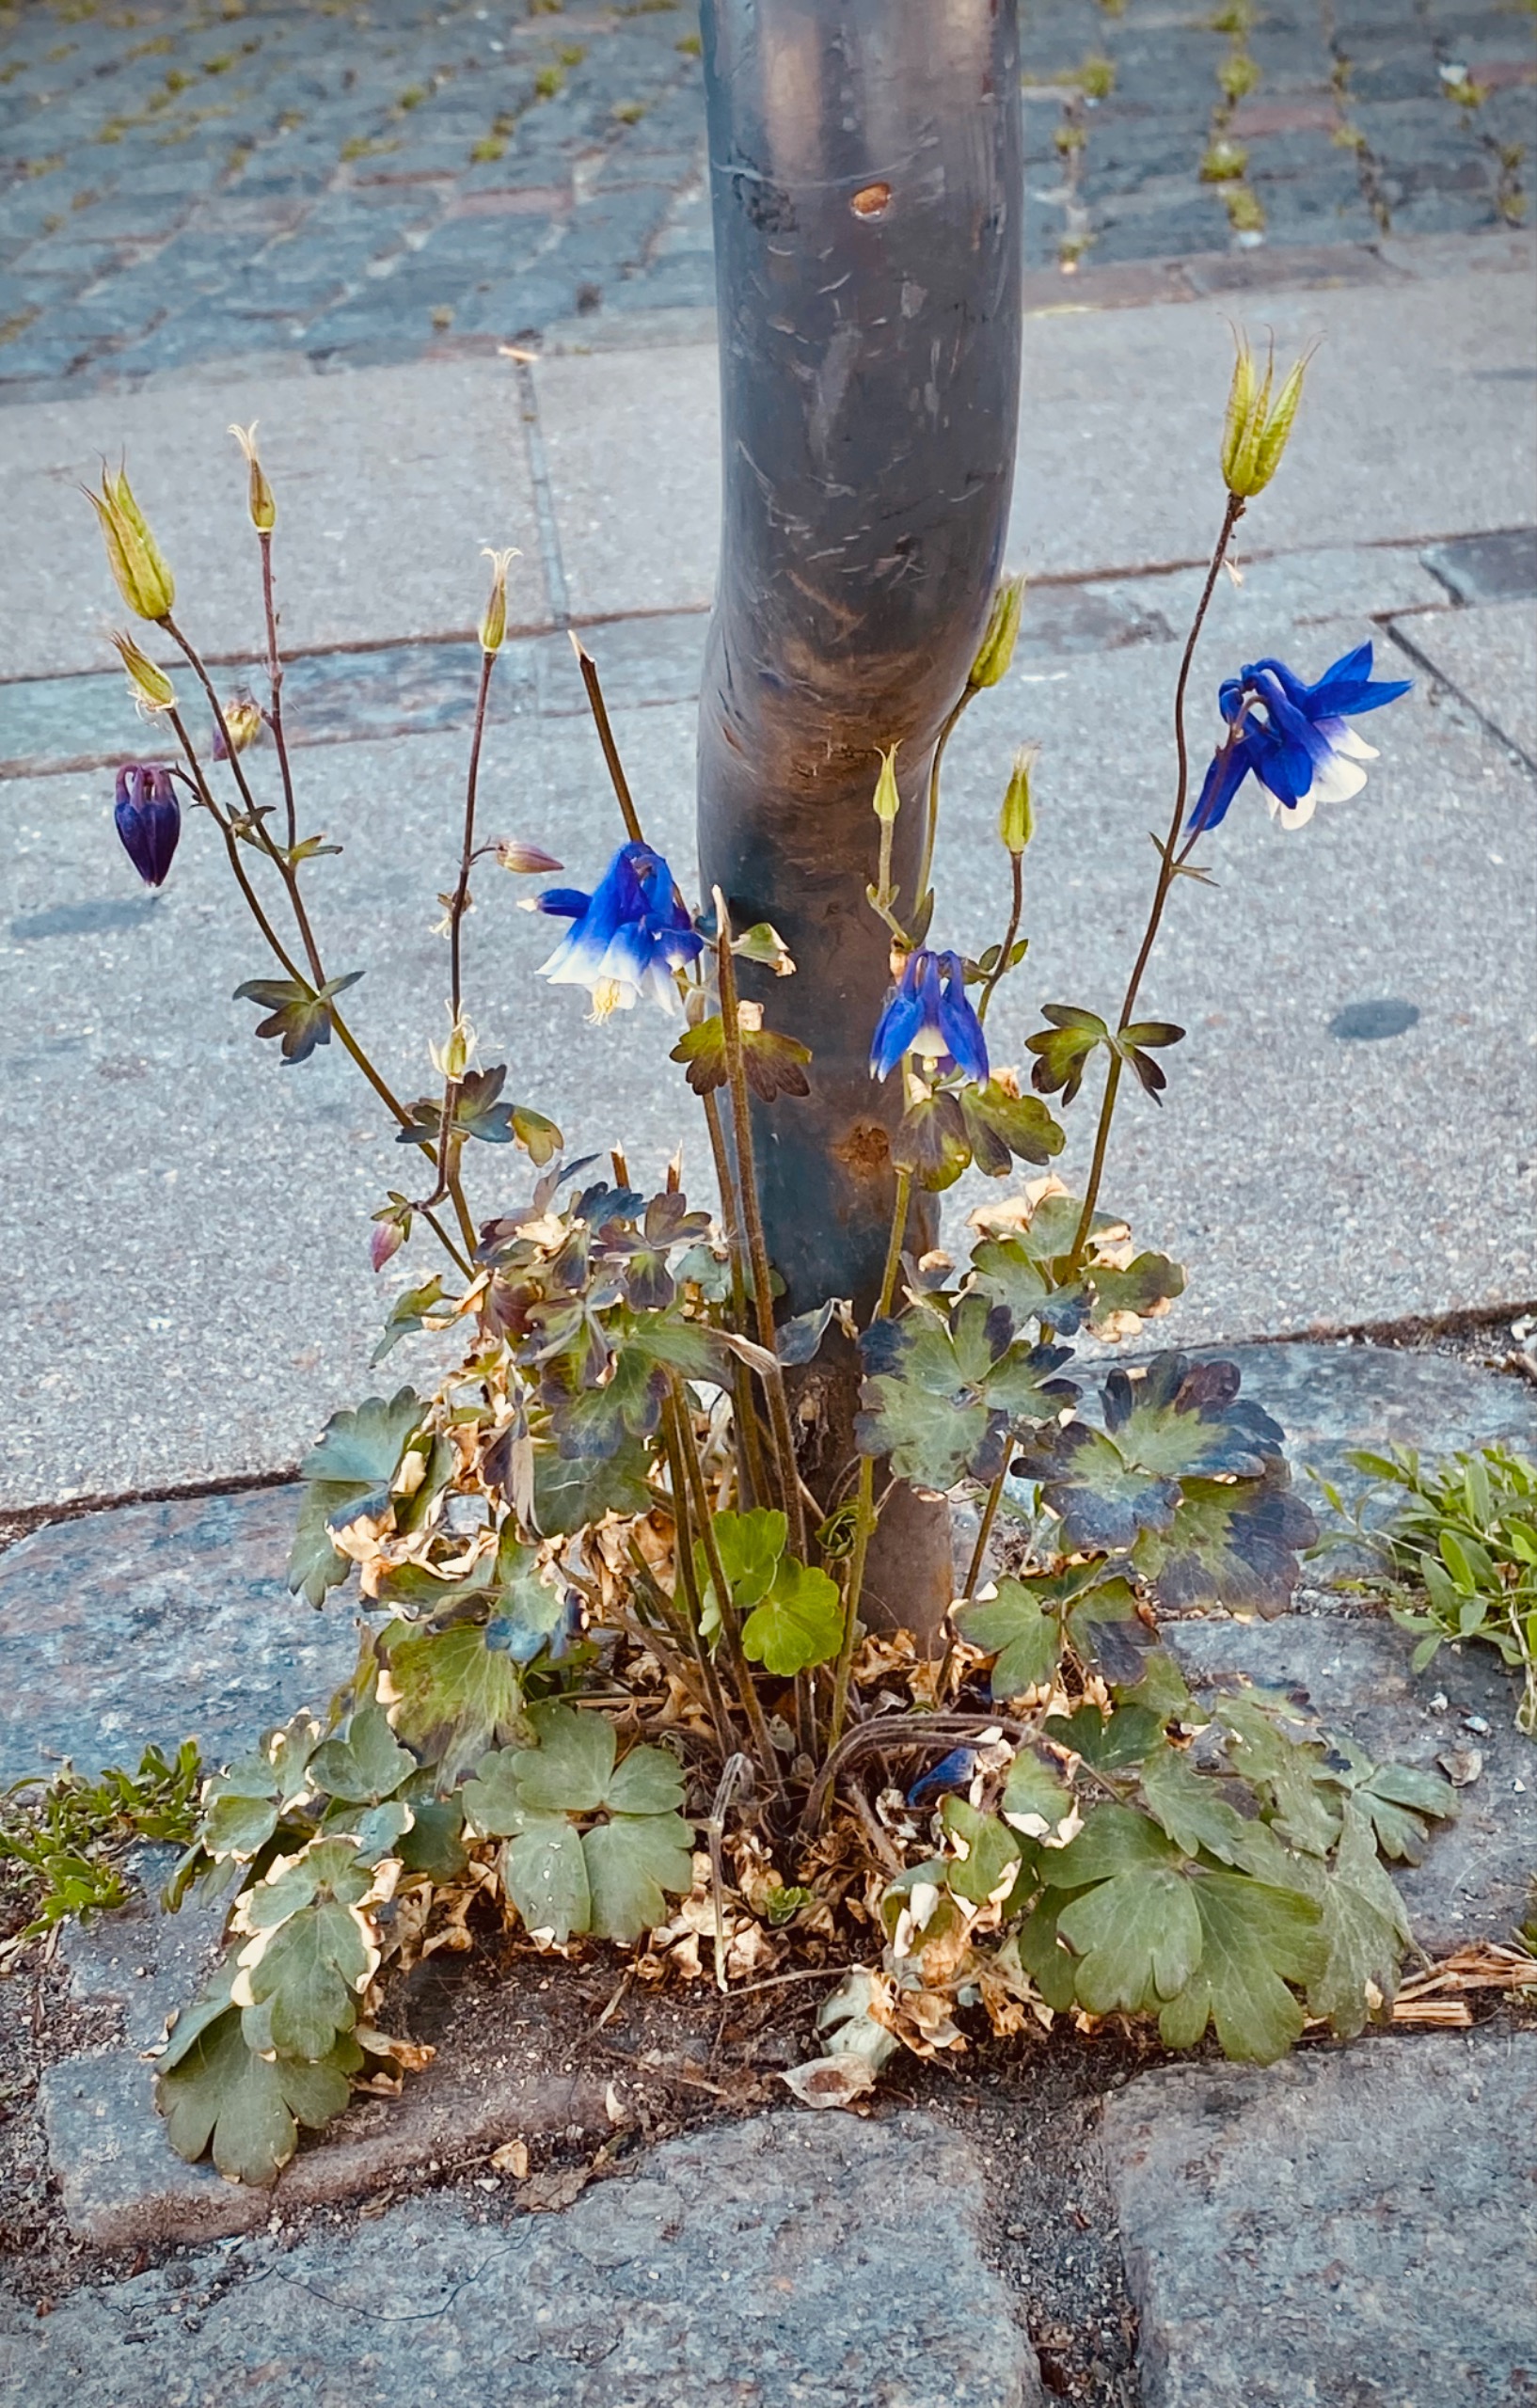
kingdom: Plantae
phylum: Tracheophyta
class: Magnoliopsida
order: Ranunculales
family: Ranunculaceae
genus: Aquilegia
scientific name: Aquilegia vulgaris
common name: Akeleje
